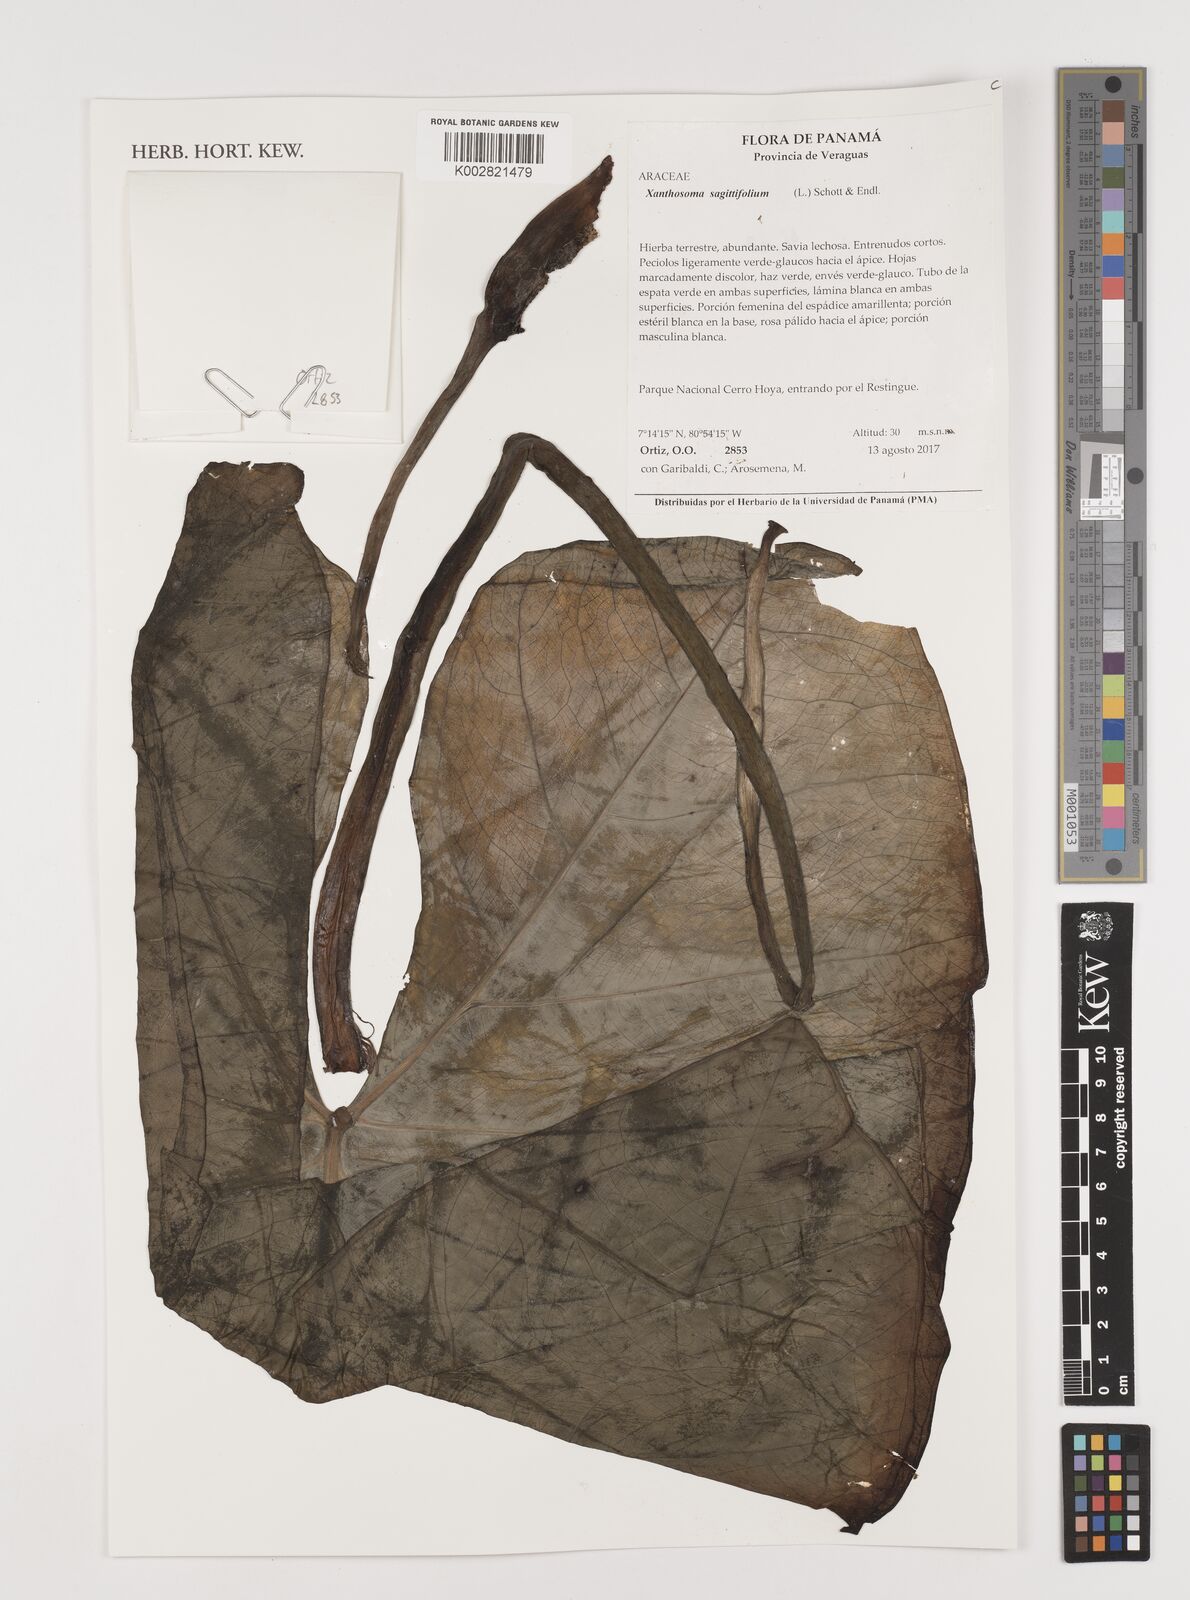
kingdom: Plantae
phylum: Tracheophyta
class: Liliopsida
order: Alismatales
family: Araceae
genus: Xanthosoma
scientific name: Xanthosoma sagittifolium
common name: Arrowleaf elephant's ear
